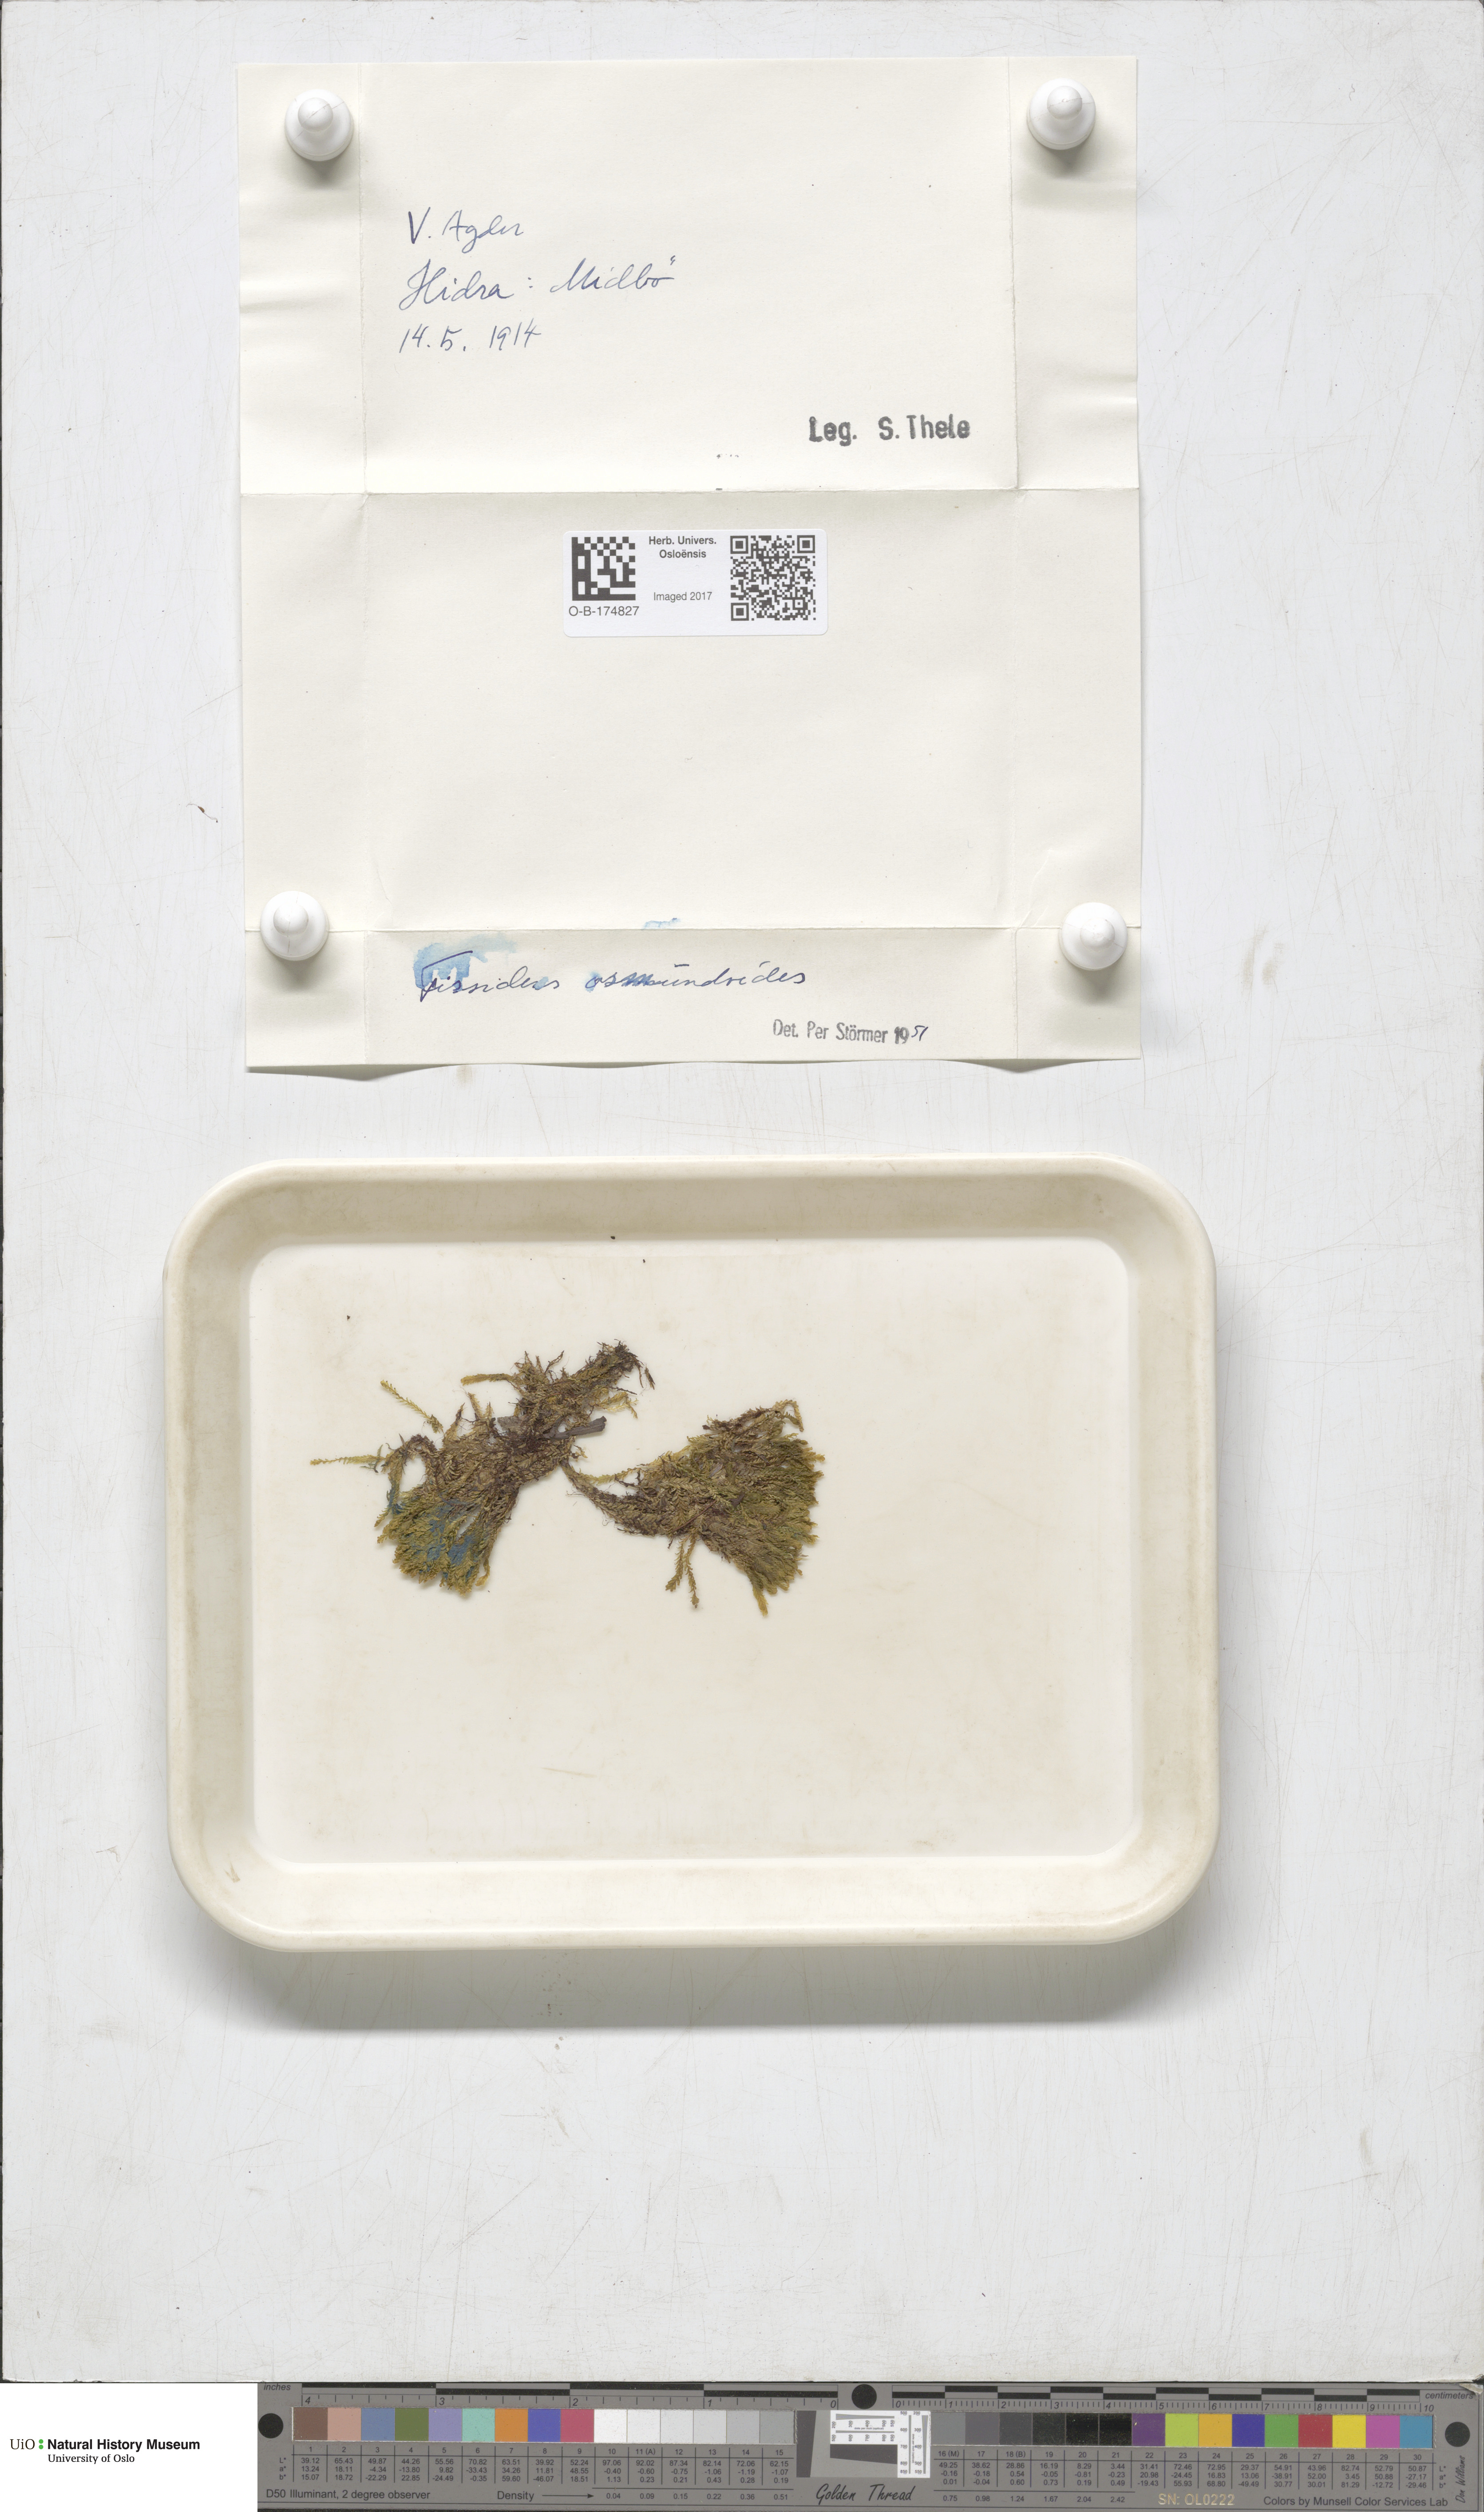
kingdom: Plantae
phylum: Bryophyta
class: Bryopsida
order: Dicranales
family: Fissidentaceae
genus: Fissidens
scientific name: Fissidens osmundoides
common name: Purple-stalked pocket moss
